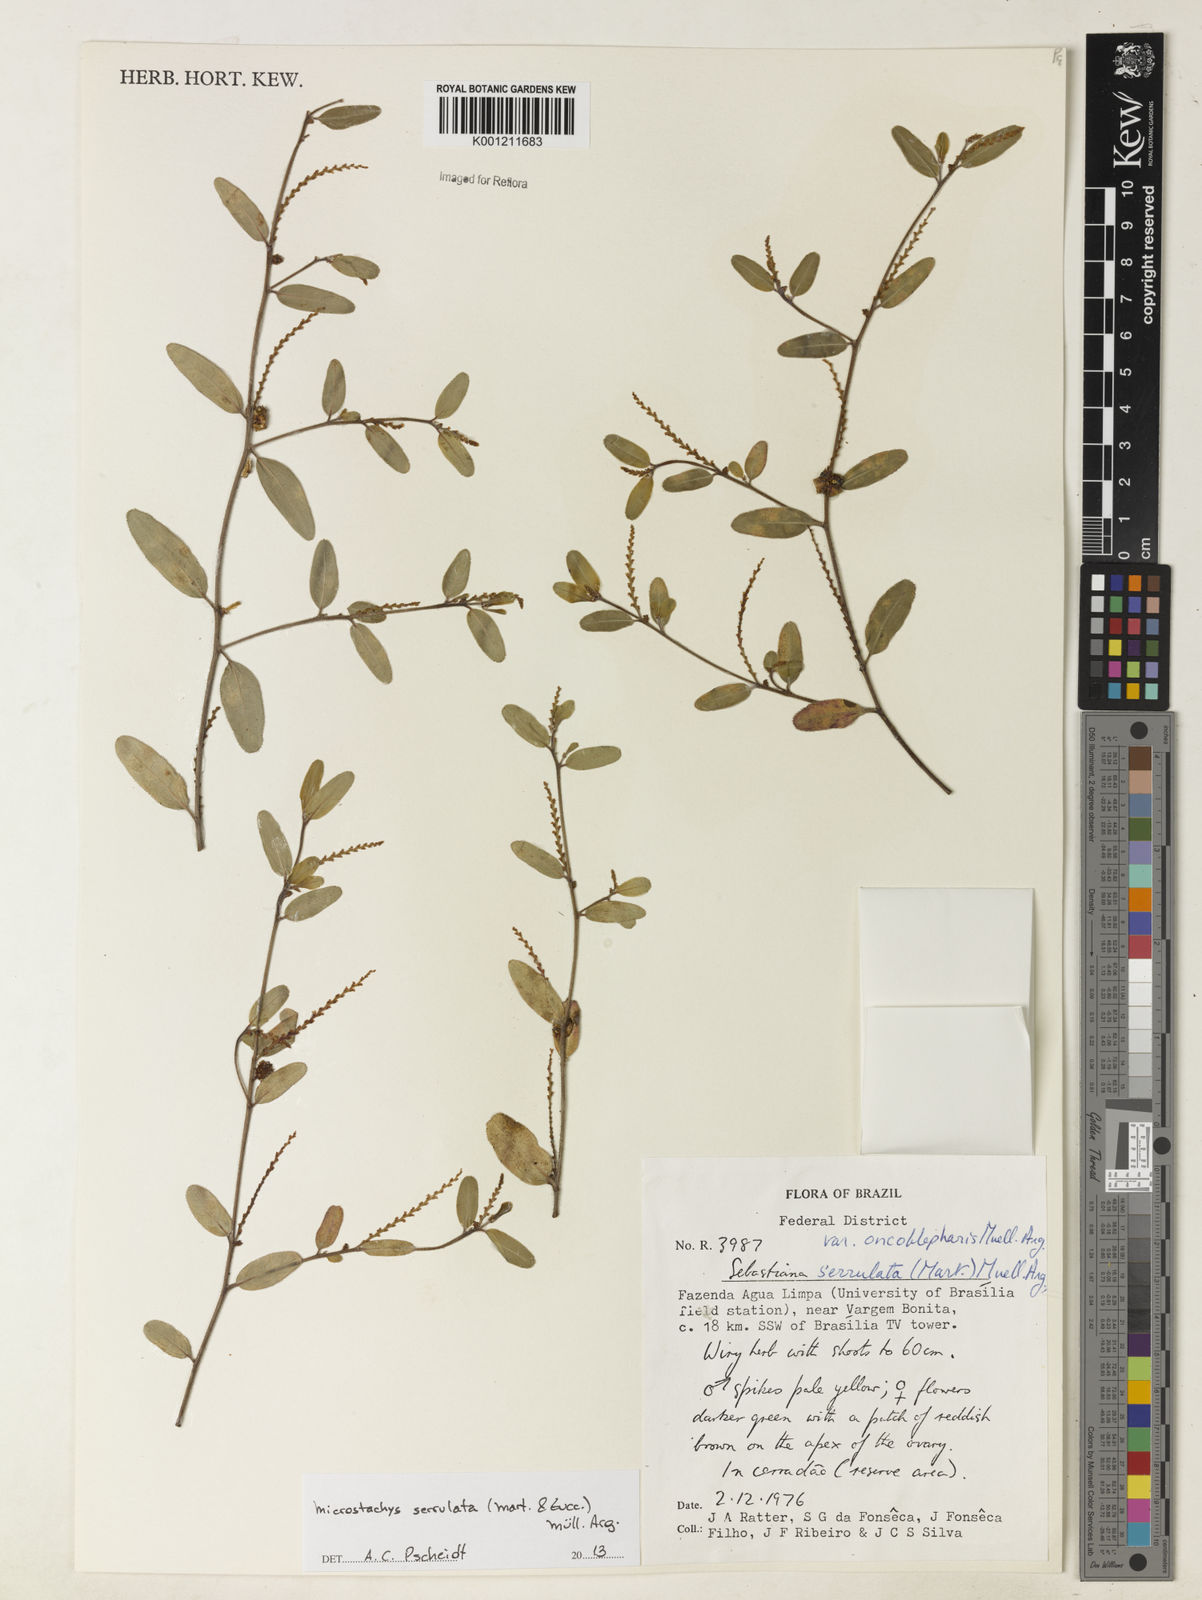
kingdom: Plantae
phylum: Tracheophyta
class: Magnoliopsida
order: Malpighiales
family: Euphorbiaceae
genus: Microstachys
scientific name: Microstachys
